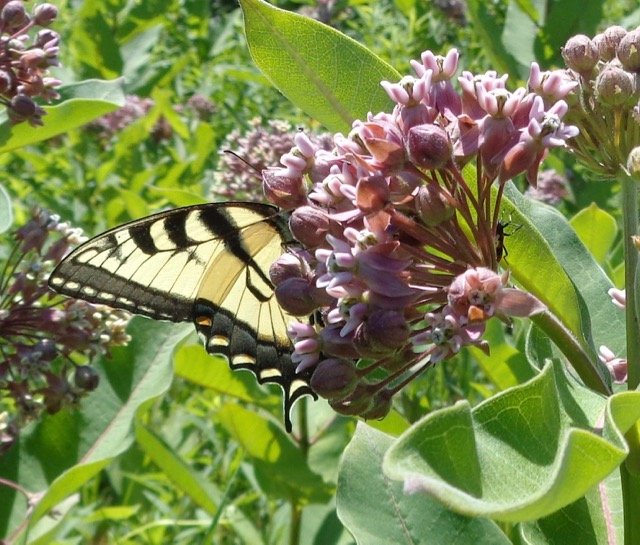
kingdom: Animalia
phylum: Arthropoda
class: Insecta
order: Lepidoptera
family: Papilionidae
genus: Pterourus
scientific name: Pterourus
